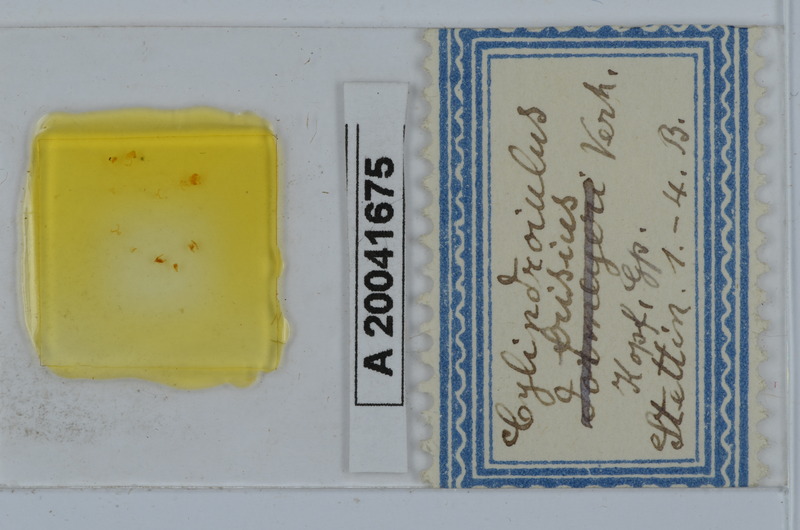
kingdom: Animalia
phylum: Arthropoda
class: Diplopoda
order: Julida
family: Julidae
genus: Cylindroiulus
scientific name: Cylindroiulus frisius
